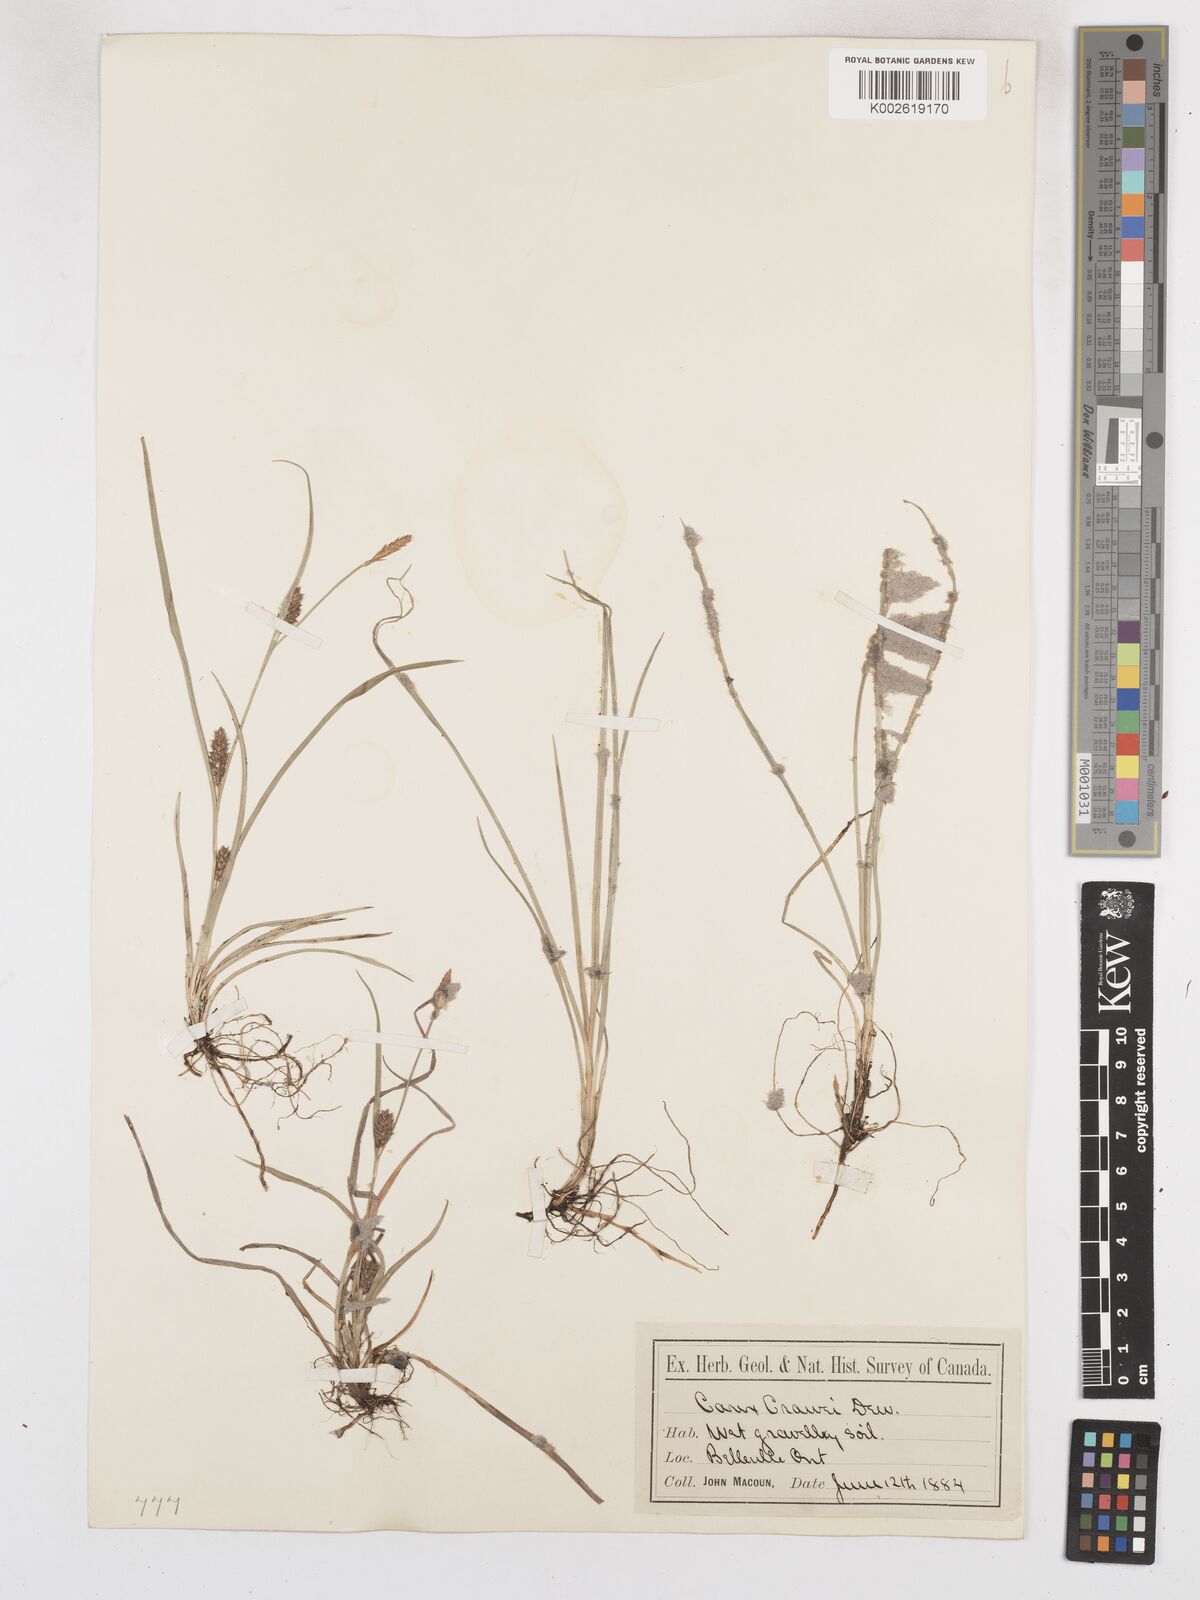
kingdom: Plantae
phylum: Tracheophyta
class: Liliopsida
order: Poales
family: Cyperaceae
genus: Carex
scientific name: Carex crawei
